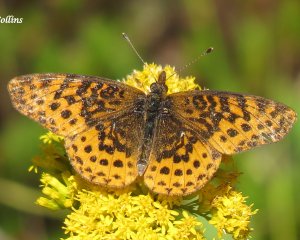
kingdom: Animalia
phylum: Arthropoda
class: Insecta
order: Lepidoptera
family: Nymphalidae
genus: Clossiana
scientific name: Clossiana toddi
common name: Meadow Fritillary
